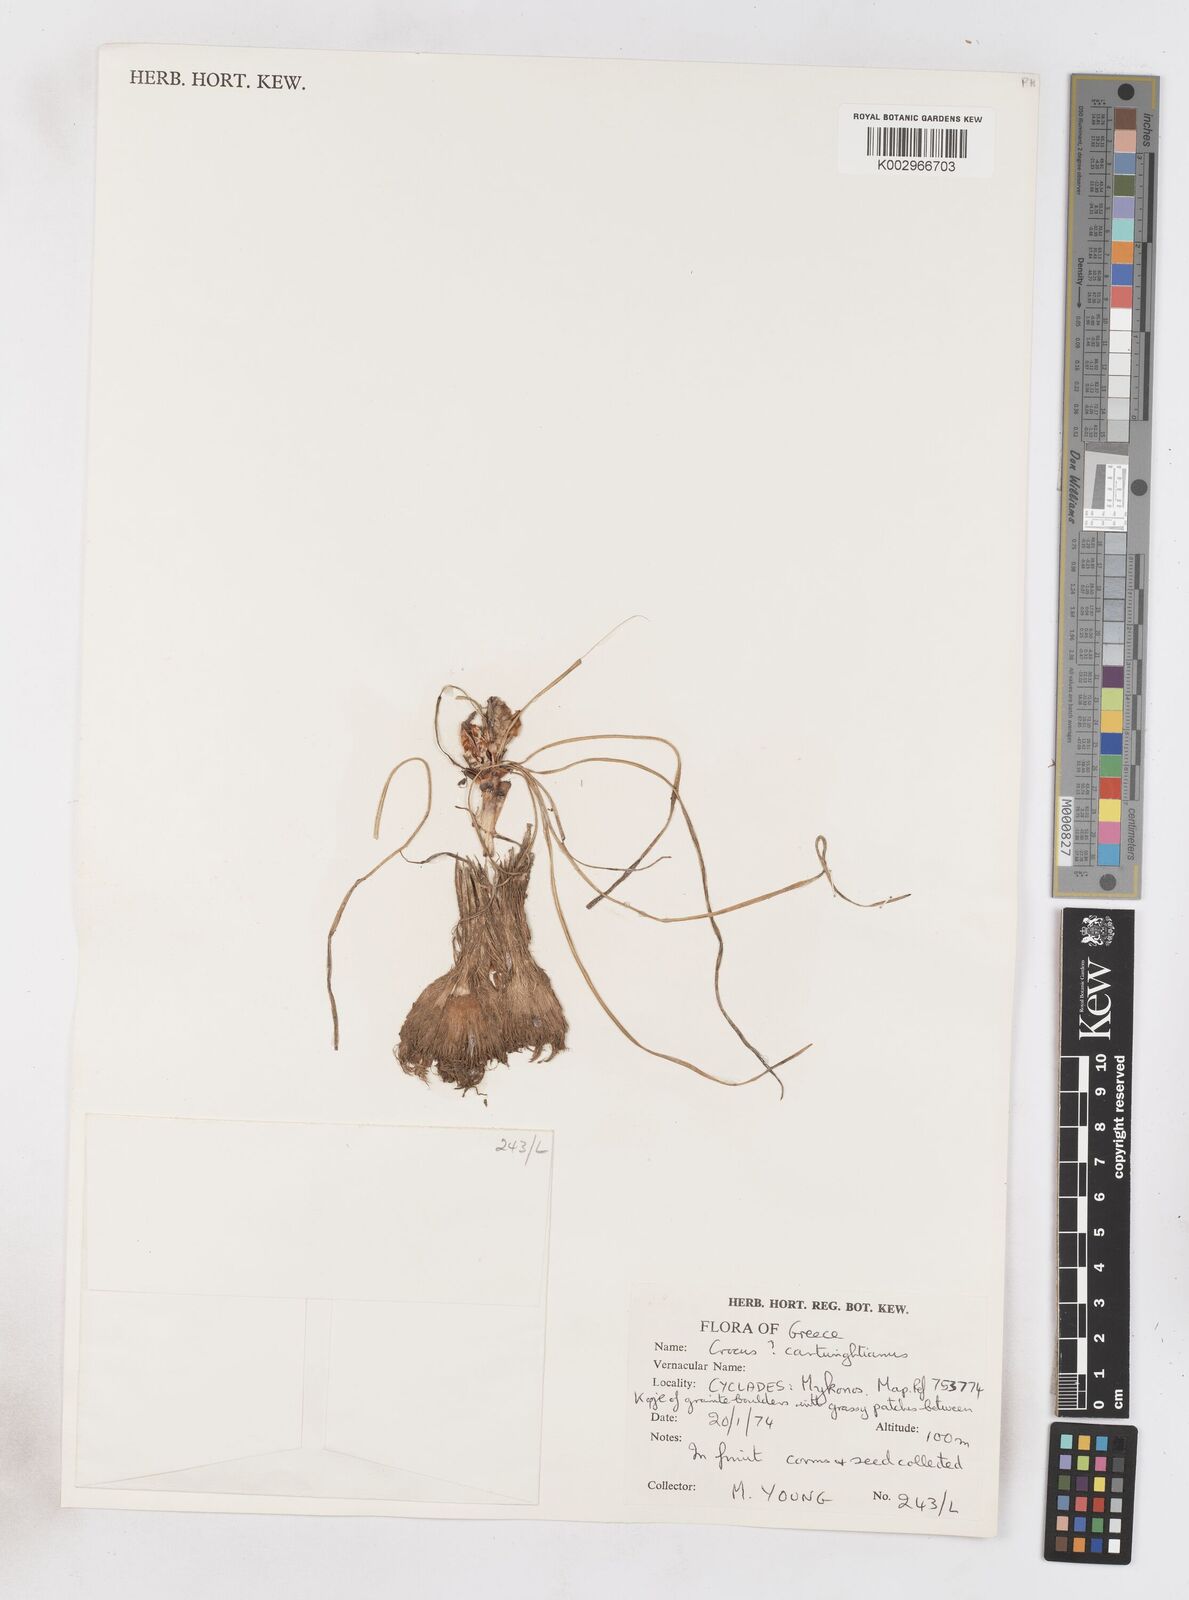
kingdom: Plantae
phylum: Tracheophyta
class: Liliopsida
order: Asparagales
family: Iridaceae
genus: Crocus
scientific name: Crocus cartwrightianus
